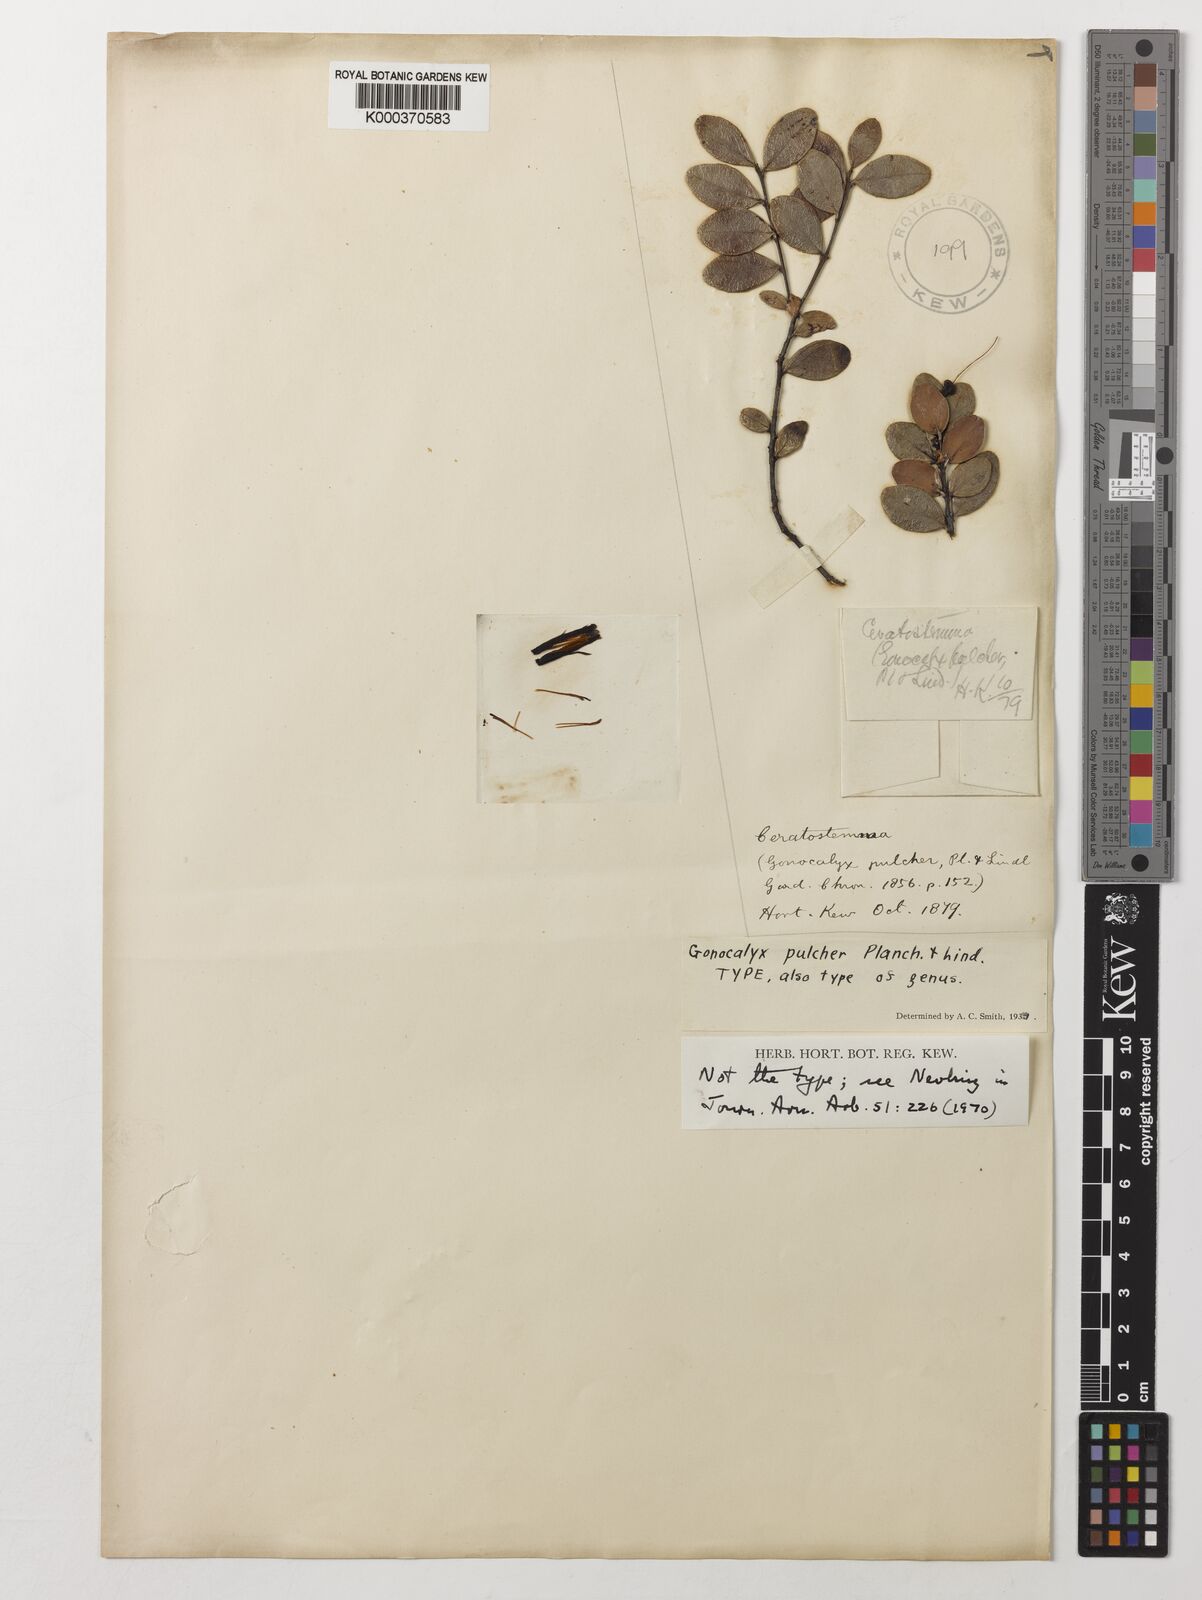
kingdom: Plantae
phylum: Tracheophyta
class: Magnoliopsida
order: Ericales
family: Ericaceae
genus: Gonocalyx
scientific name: Gonocalyx pulcher
